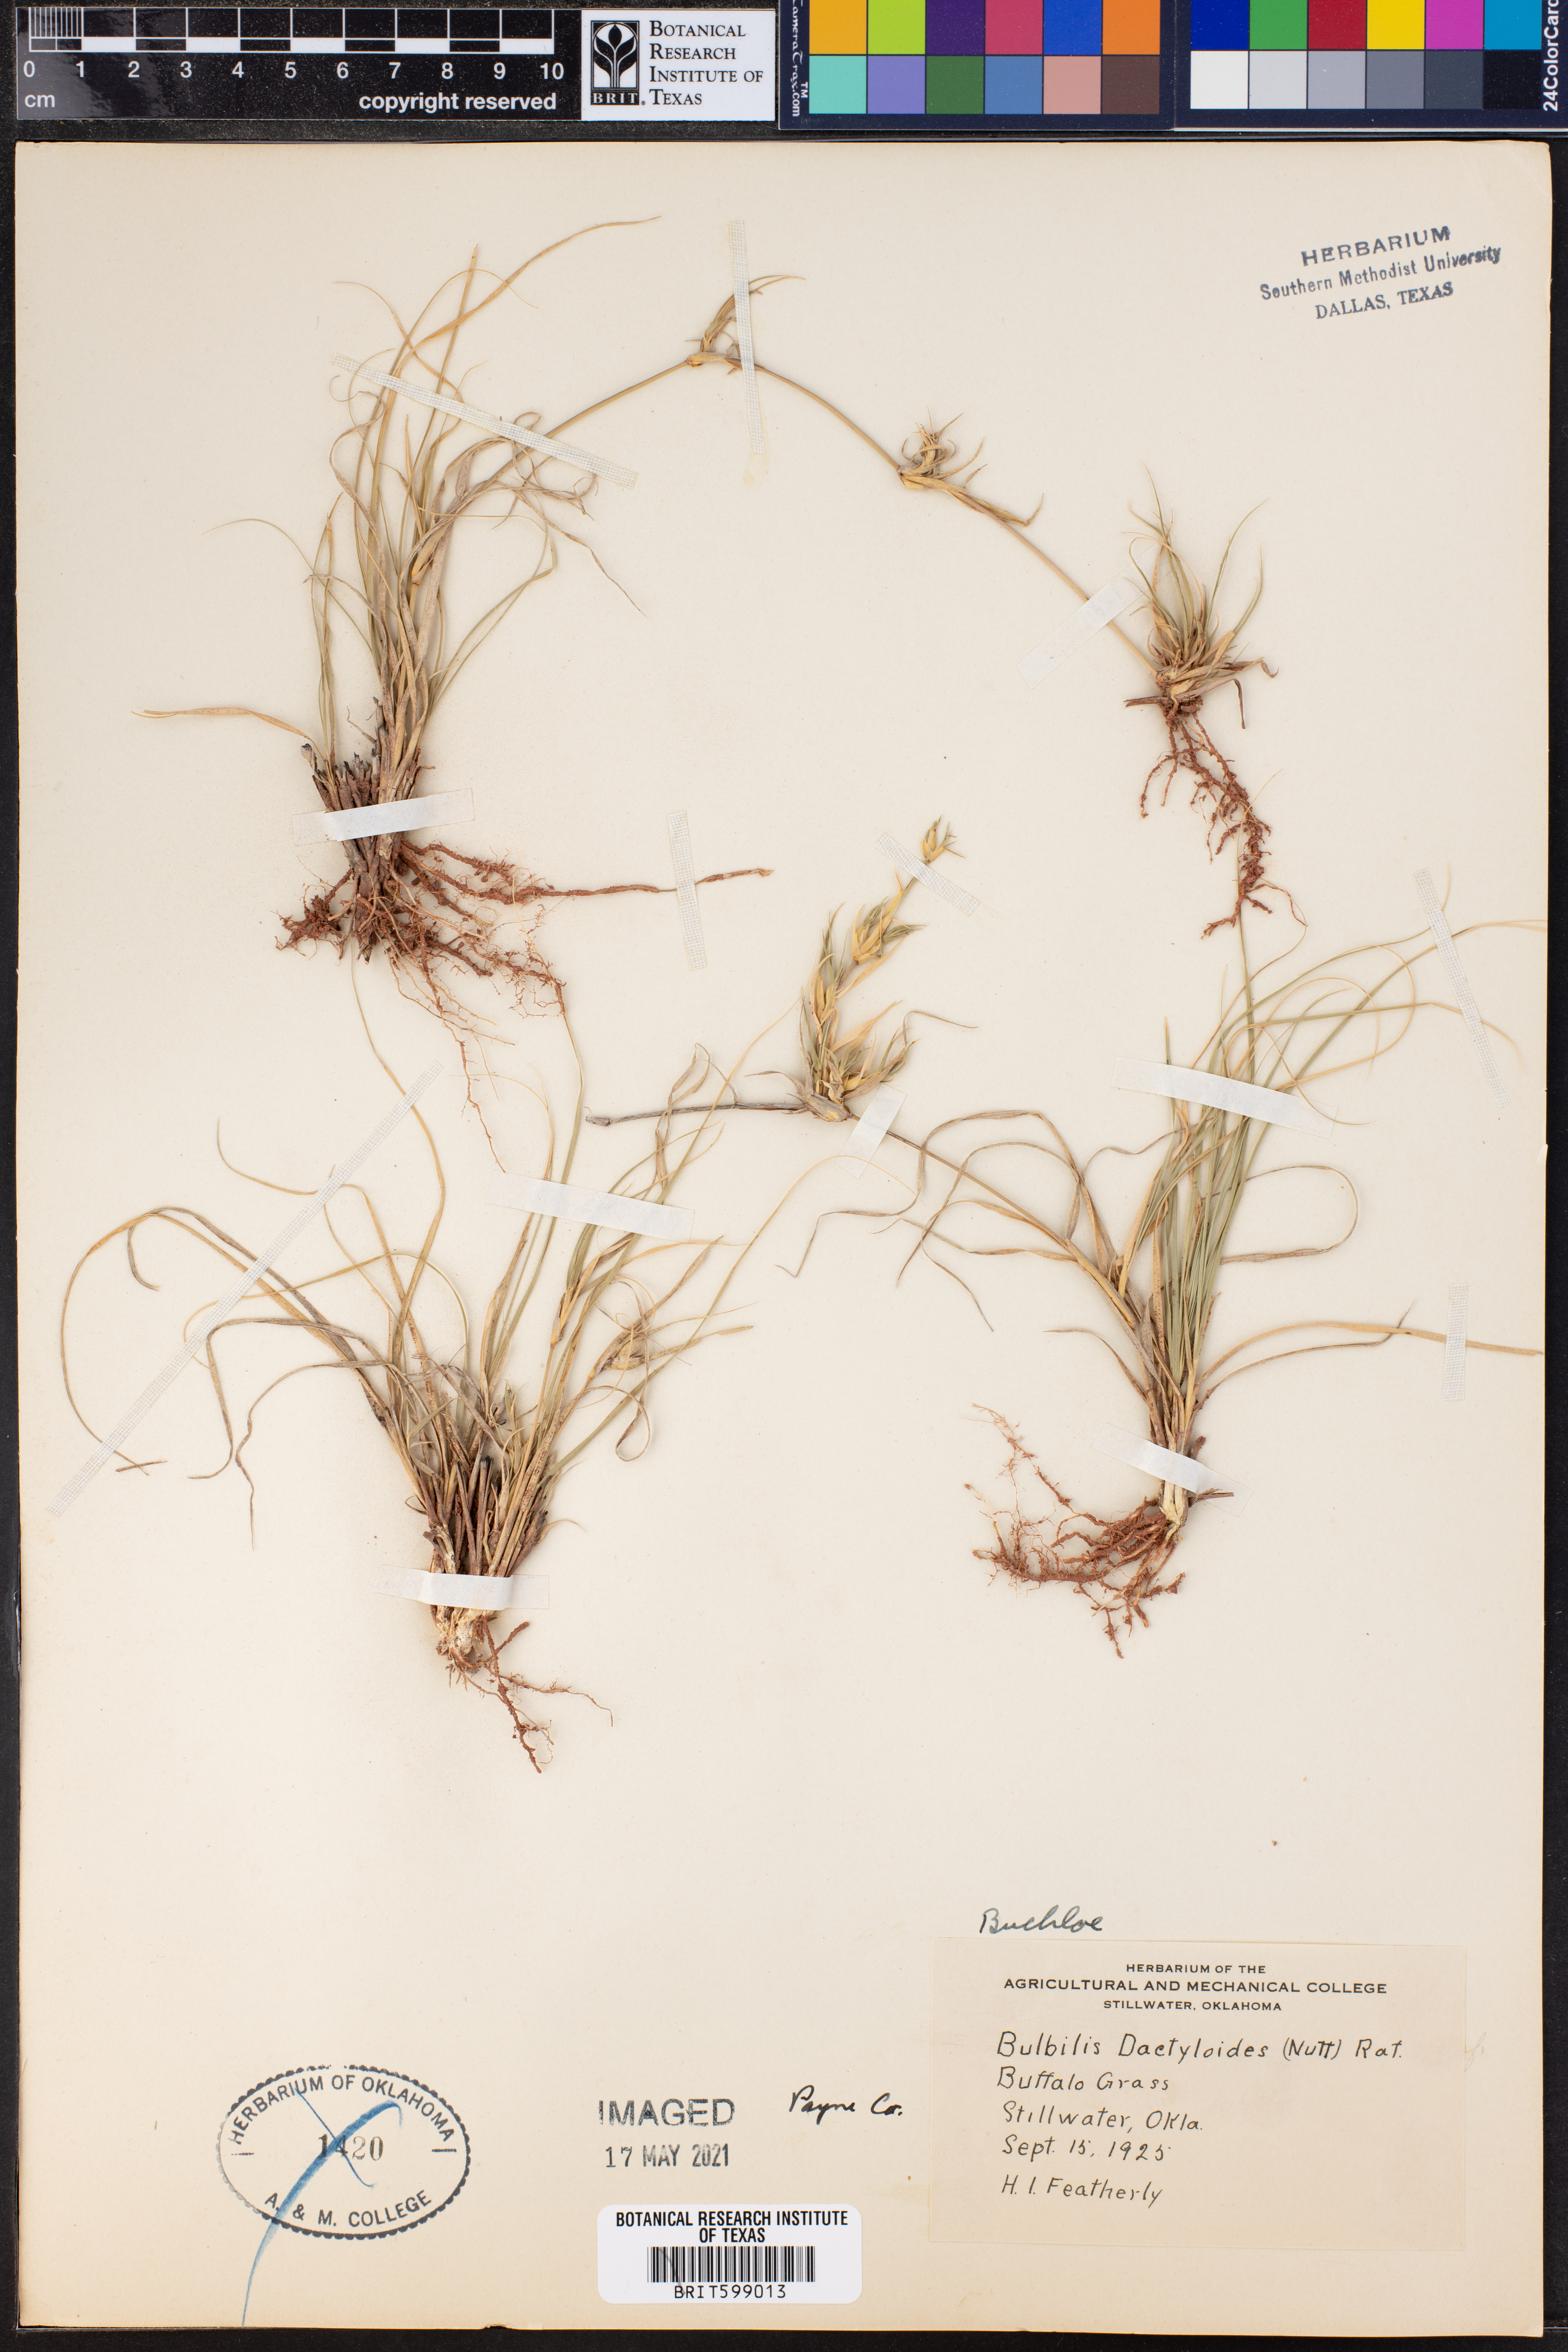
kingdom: Plantae
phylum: Tracheophyta
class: Liliopsida
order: Poales
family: Poaceae
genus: Bouteloua
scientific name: Bouteloua dactyloides
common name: Buffalo grass
